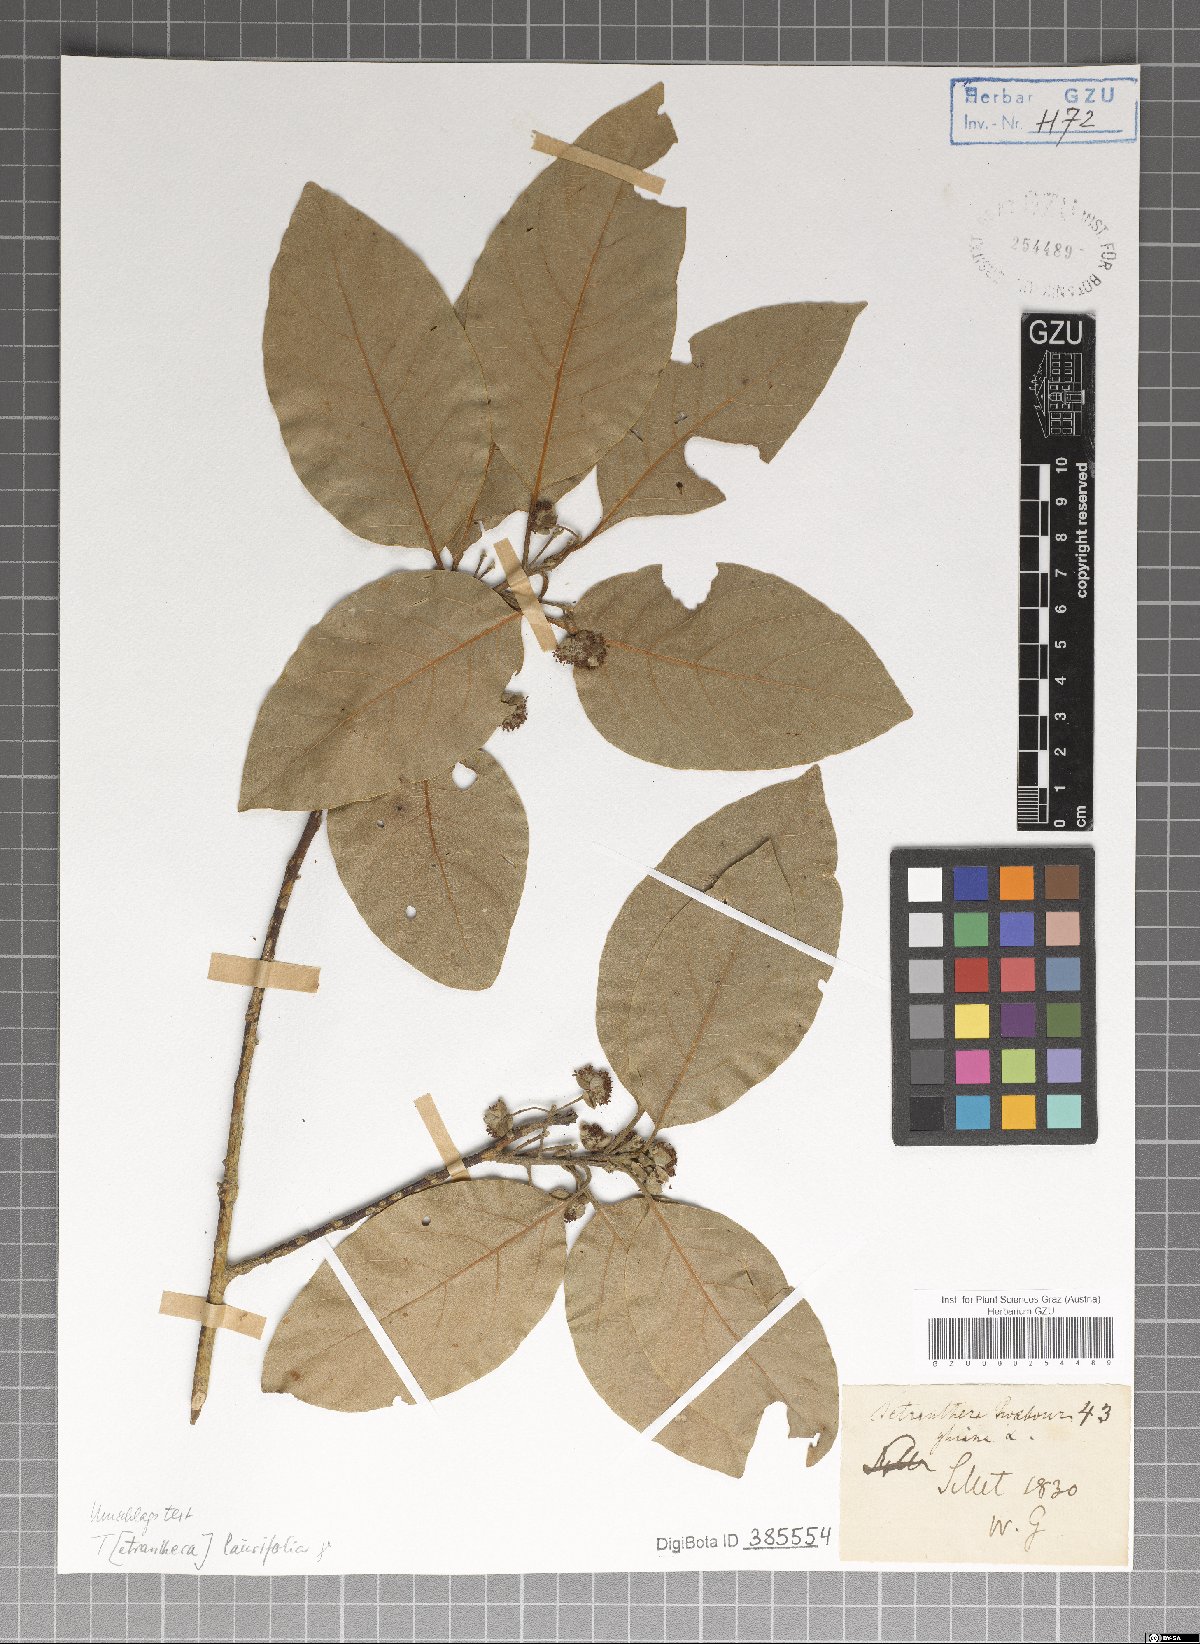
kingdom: Plantae
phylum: Tracheophyta
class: Magnoliopsida
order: Laurales
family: Lauraceae
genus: Litsea
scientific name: Litsea glutinosa
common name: Indian-laurel
